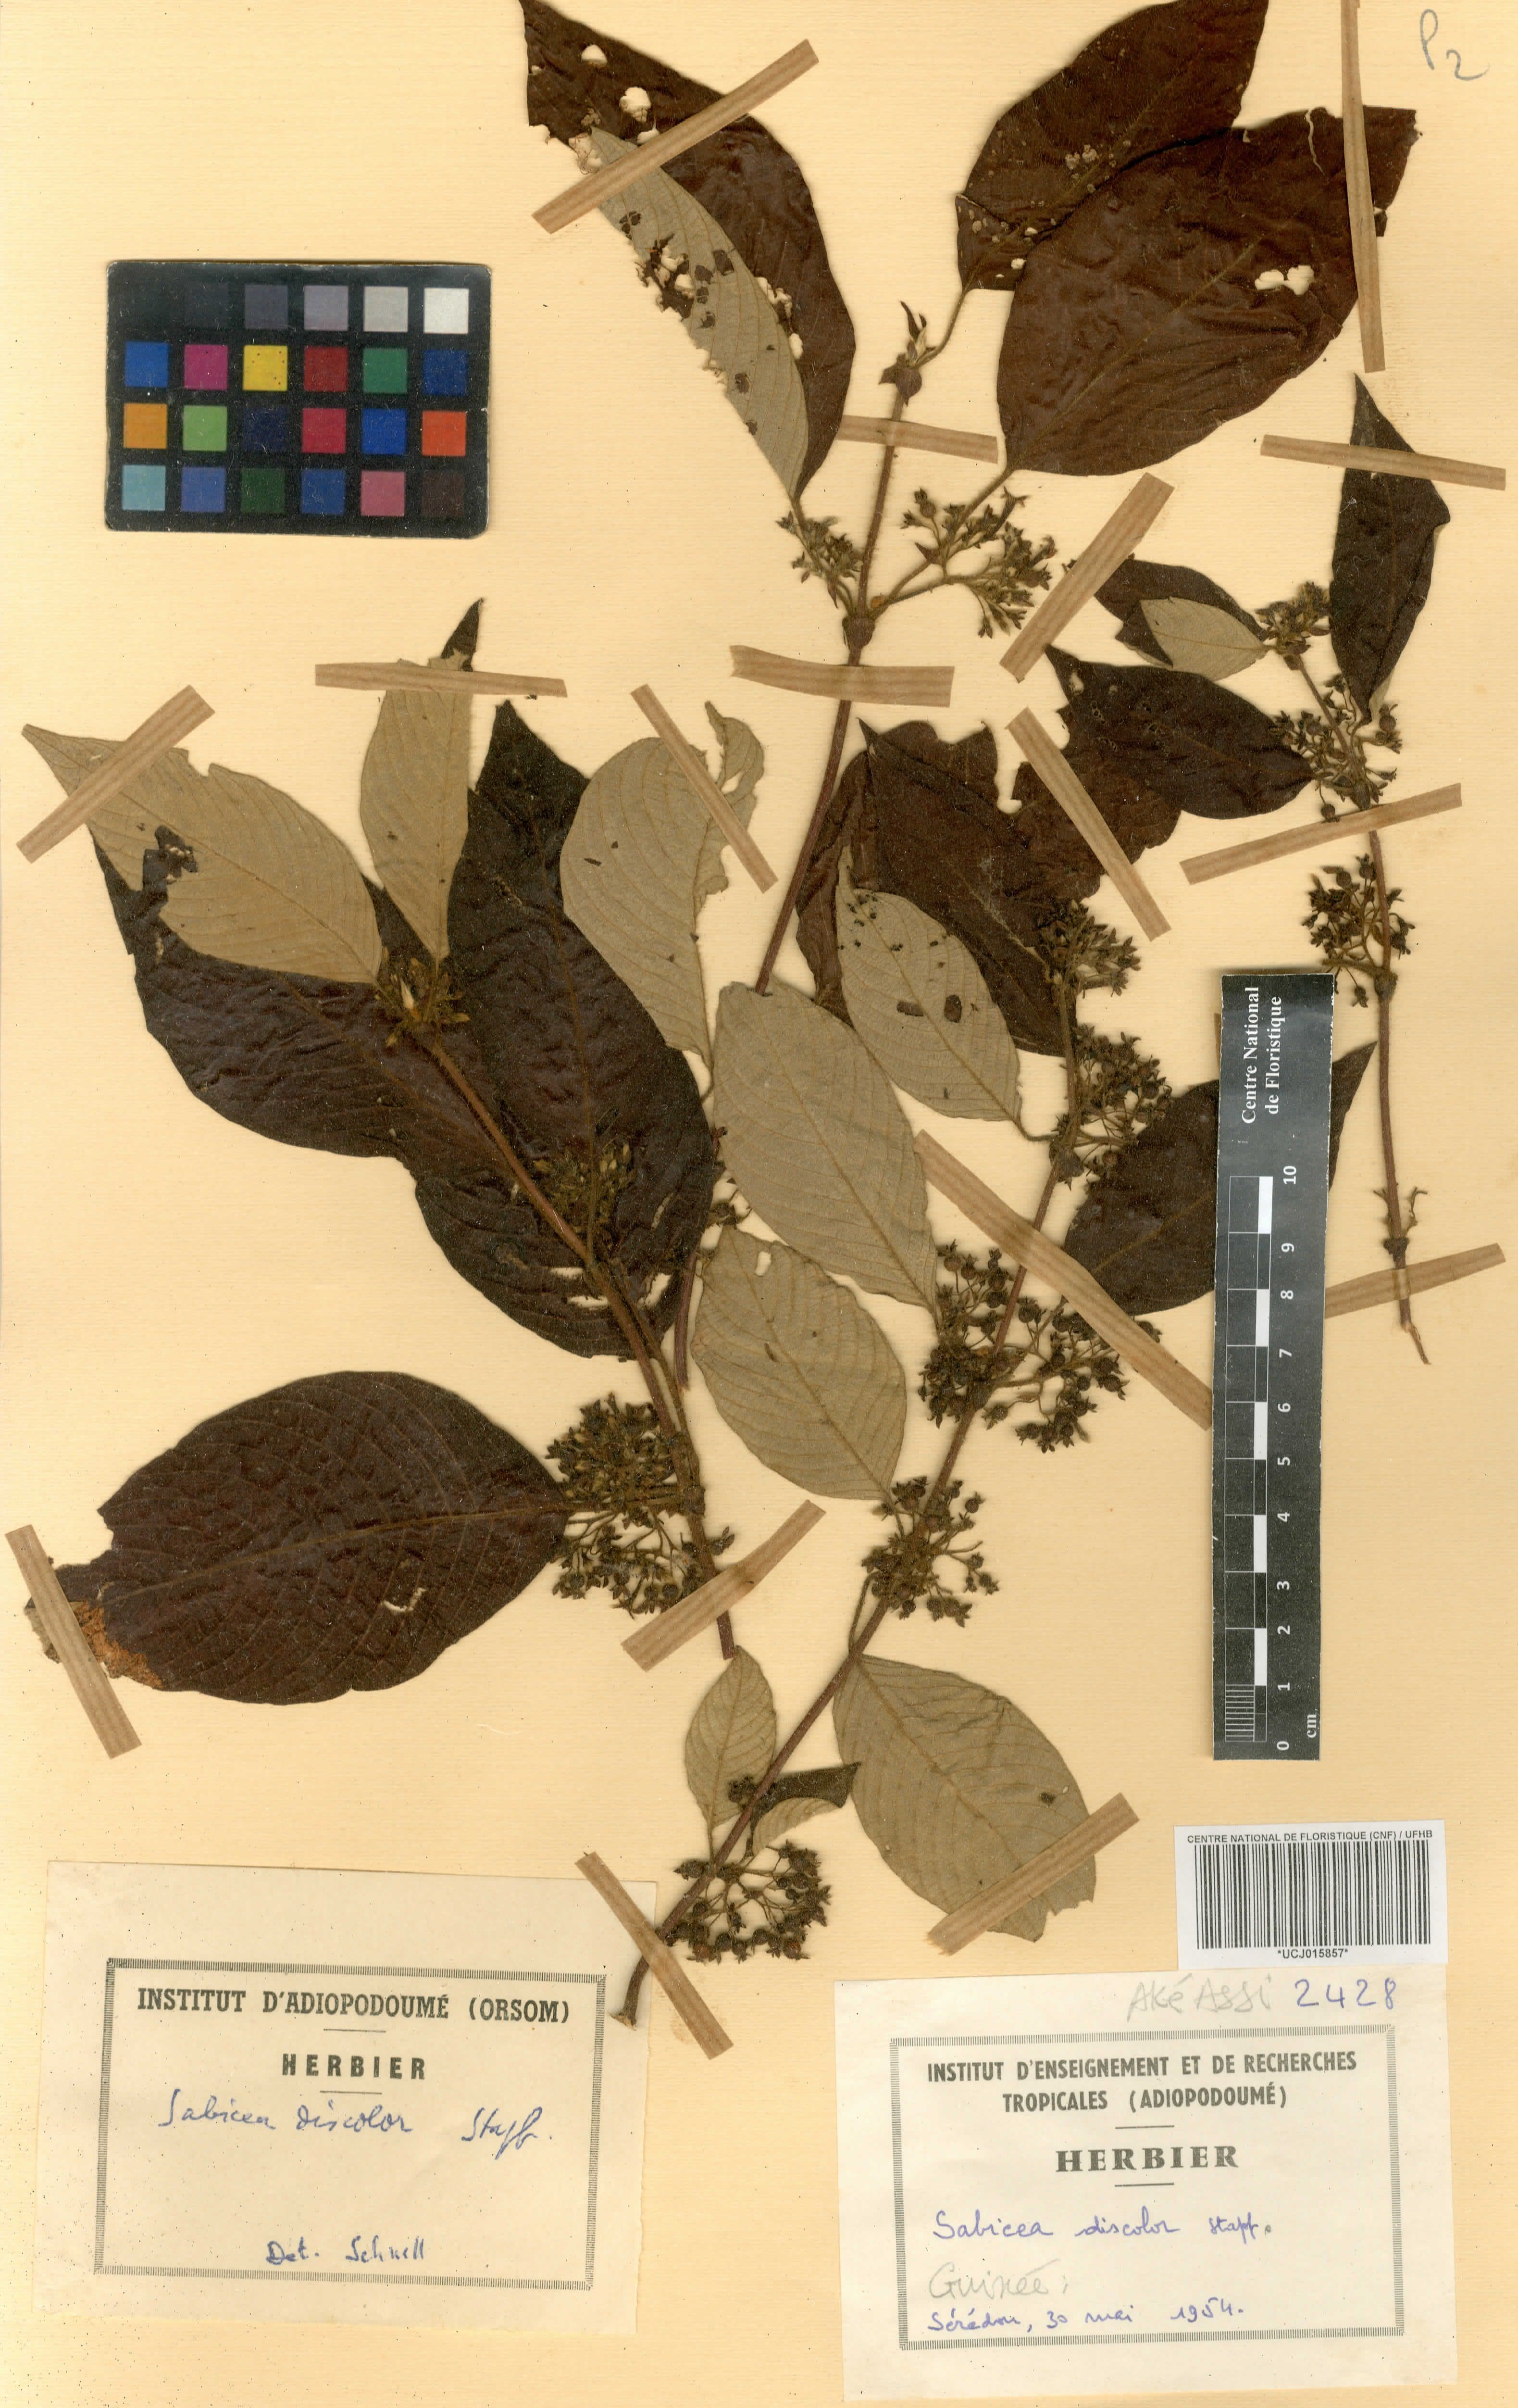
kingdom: Plantae
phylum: Tracheophyta
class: Magnoliopsida
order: Gentianales
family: Rubiaceae
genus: Sabicea
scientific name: Sabicea discolor
